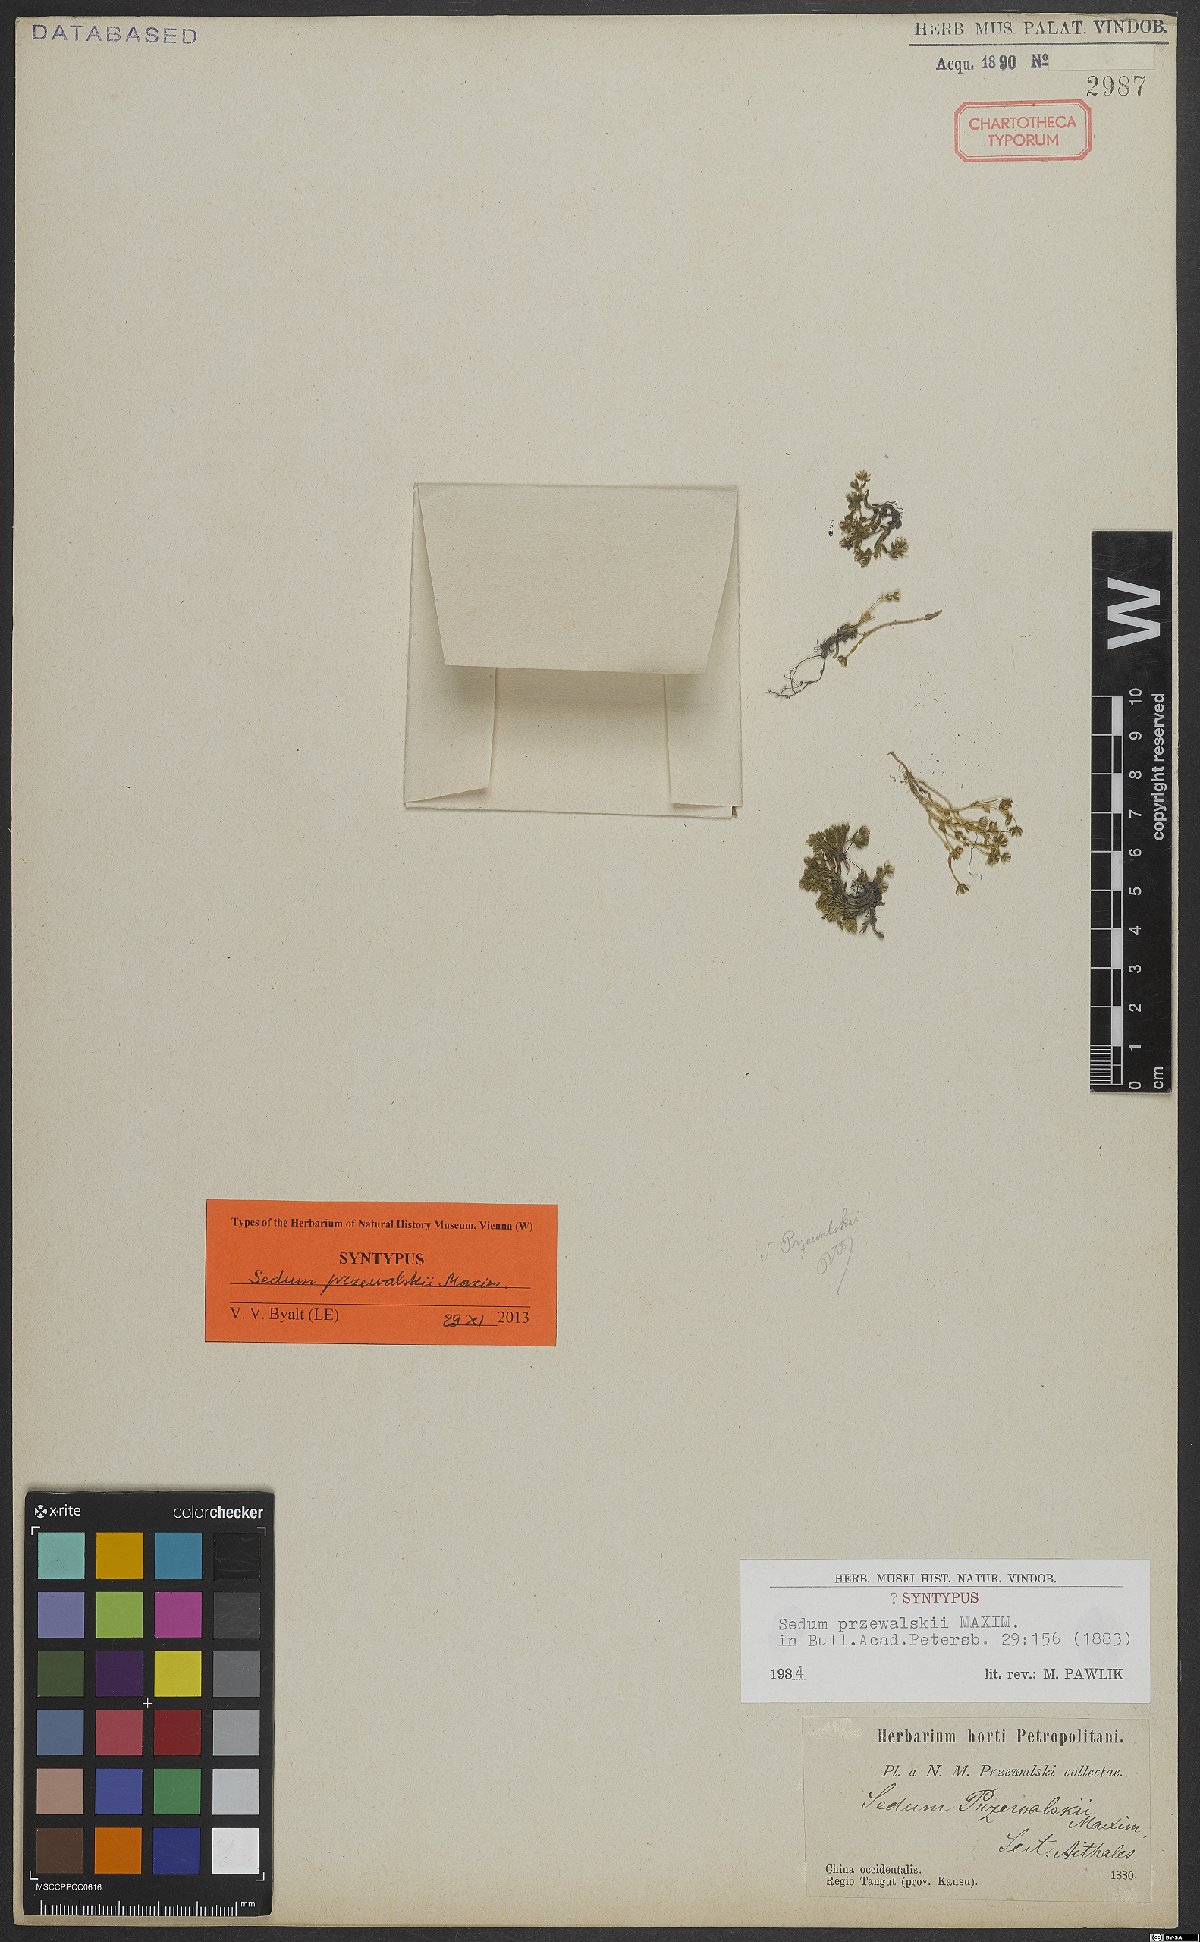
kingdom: Plantae
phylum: Tracheophyta
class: Magnoliopsida
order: Saxifragales
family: Crassulaceae
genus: Sedum
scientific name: Sedum przewalskii
